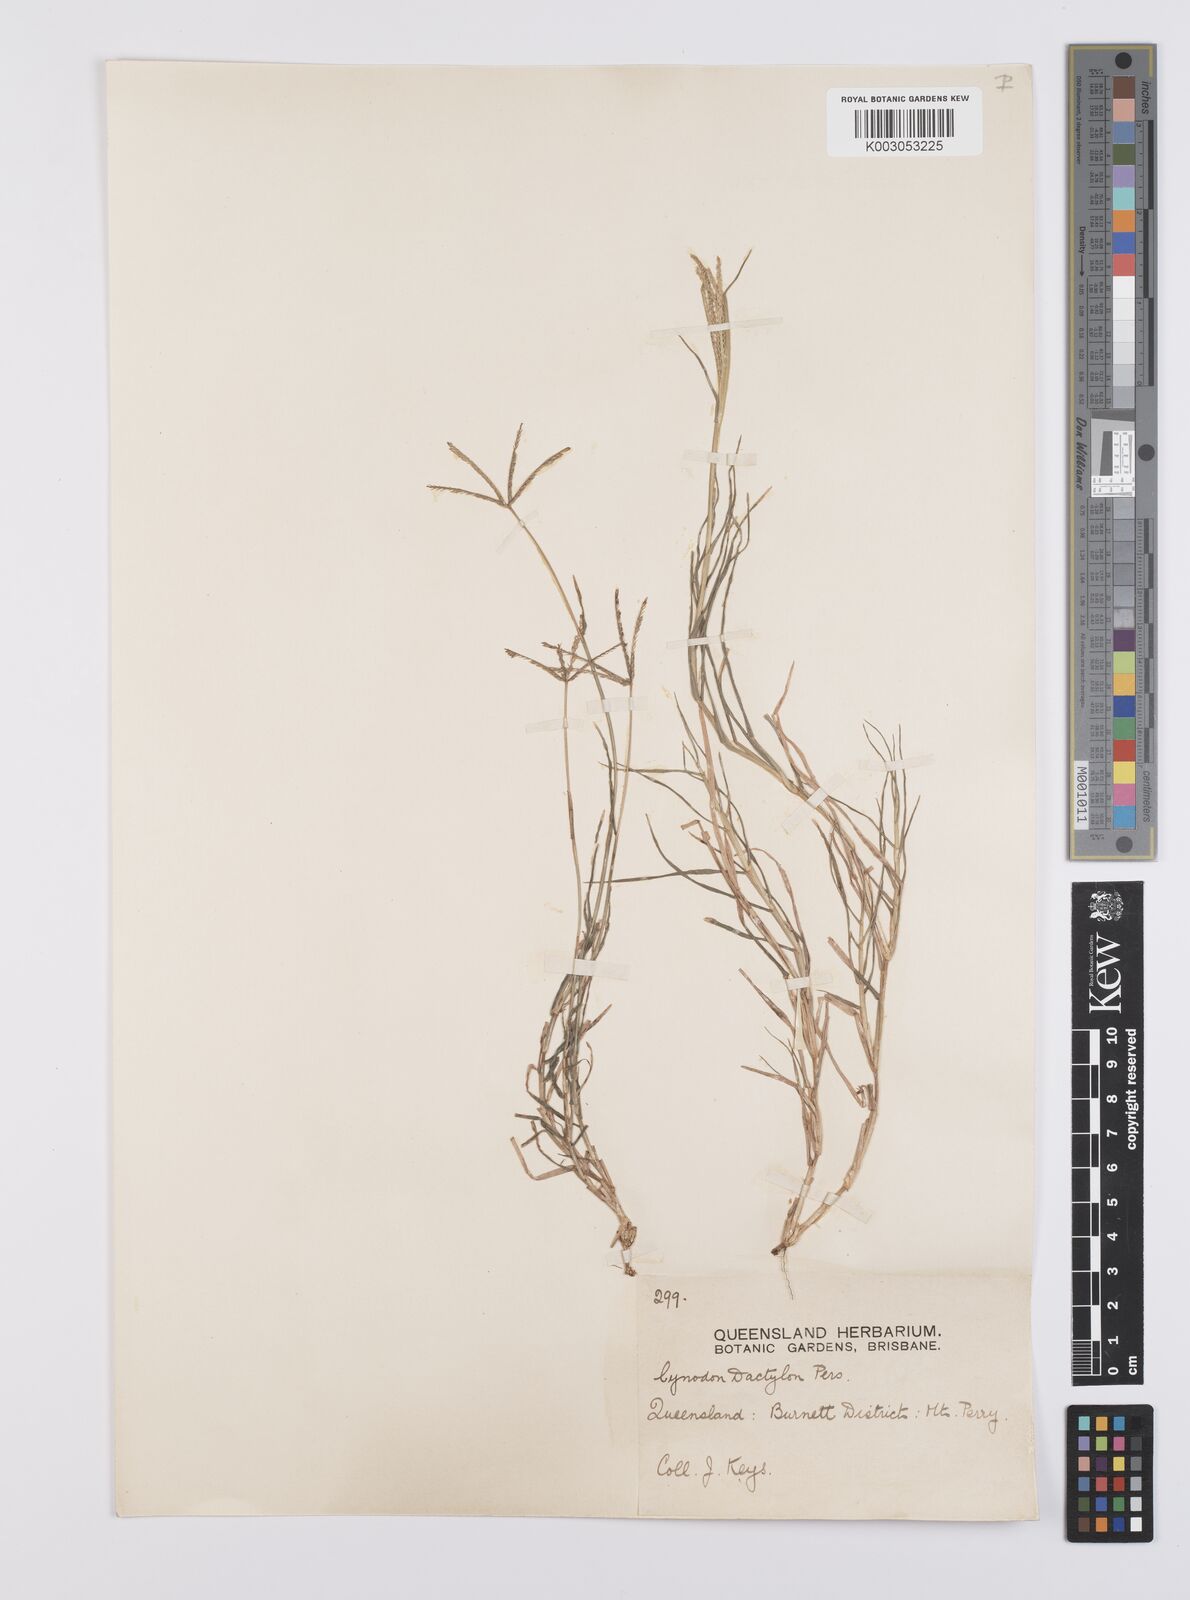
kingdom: Plantae
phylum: Tracheophyta
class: Liliopsida
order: Poales
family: Poaceae
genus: Cynodon
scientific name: Cynodon dactylon
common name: Bermuda grass
